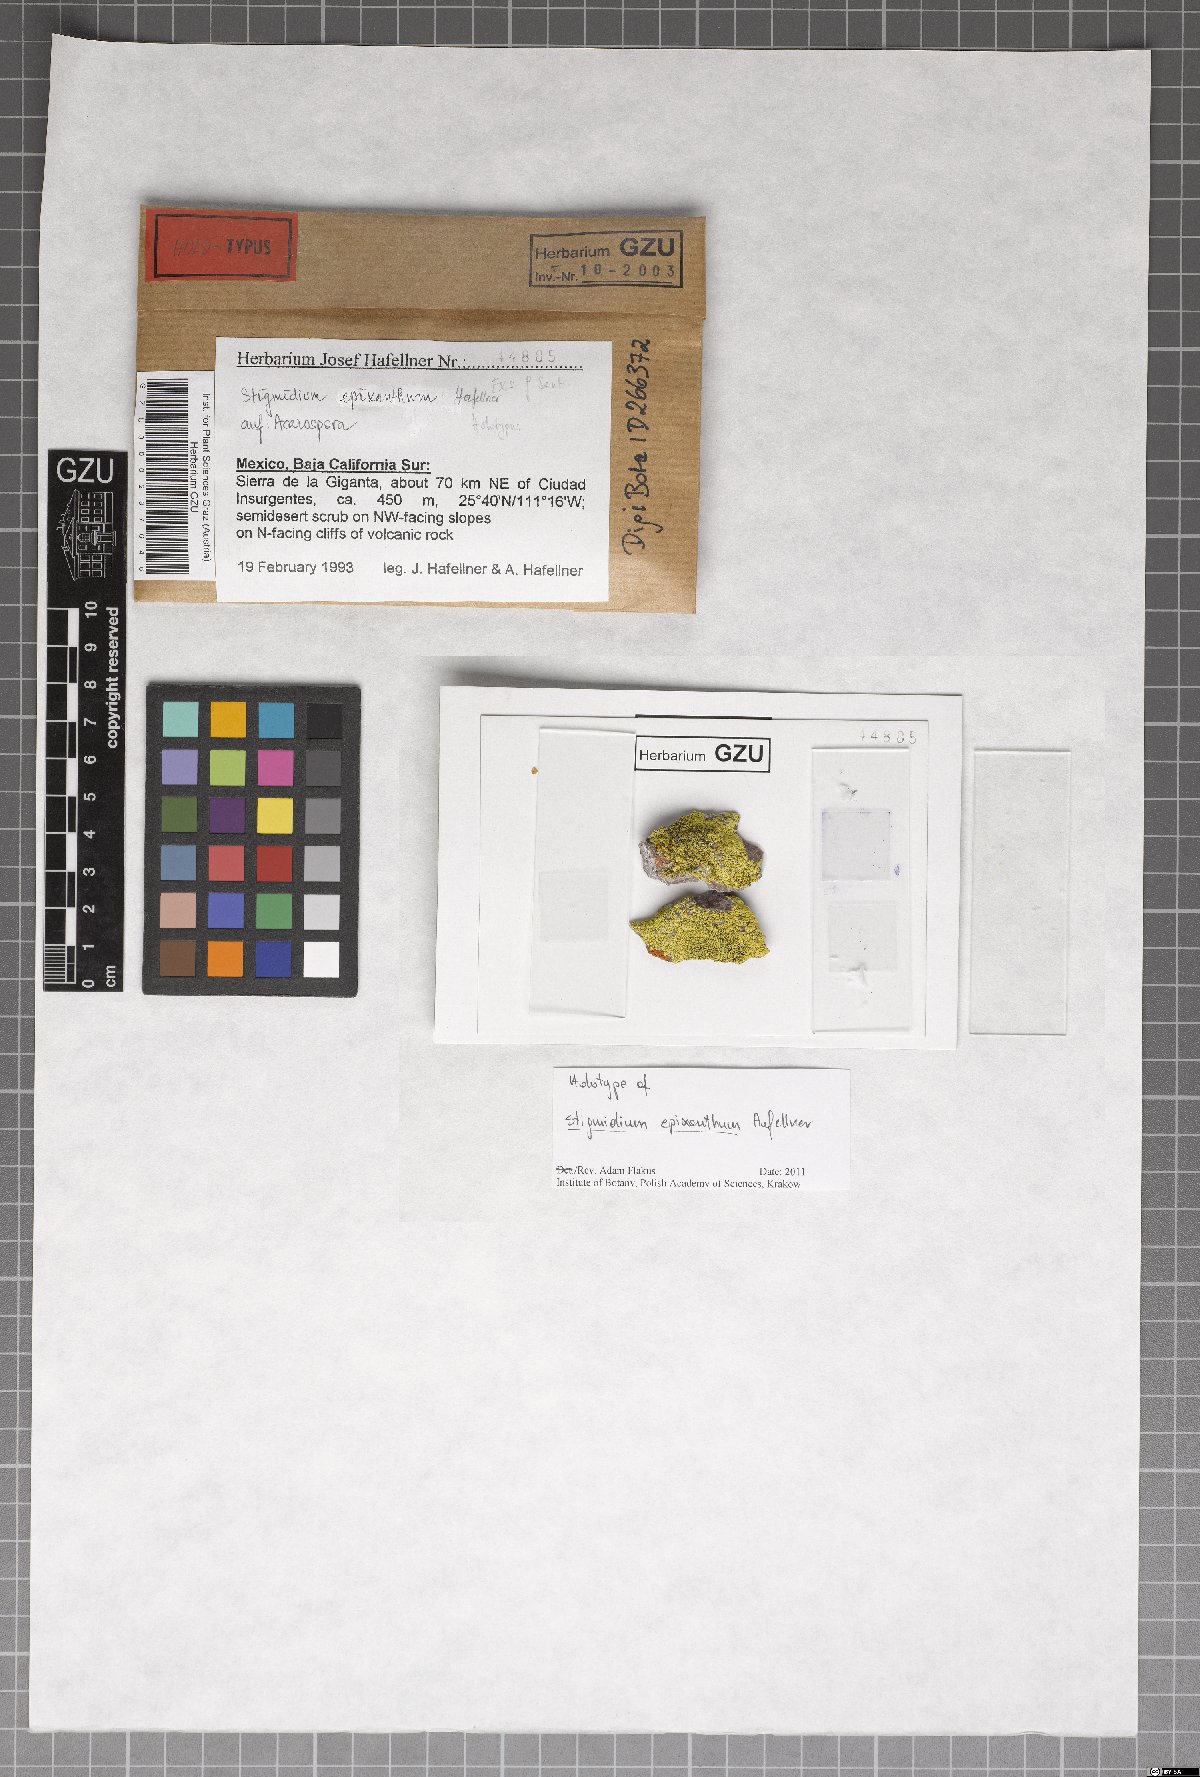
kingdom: Fungi
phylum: Ascomycota
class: Dothideomycetes
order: Mycosphaerellales
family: Mycosphaerellaceae
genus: Stigmidium
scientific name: Stigmidium epixanthum
